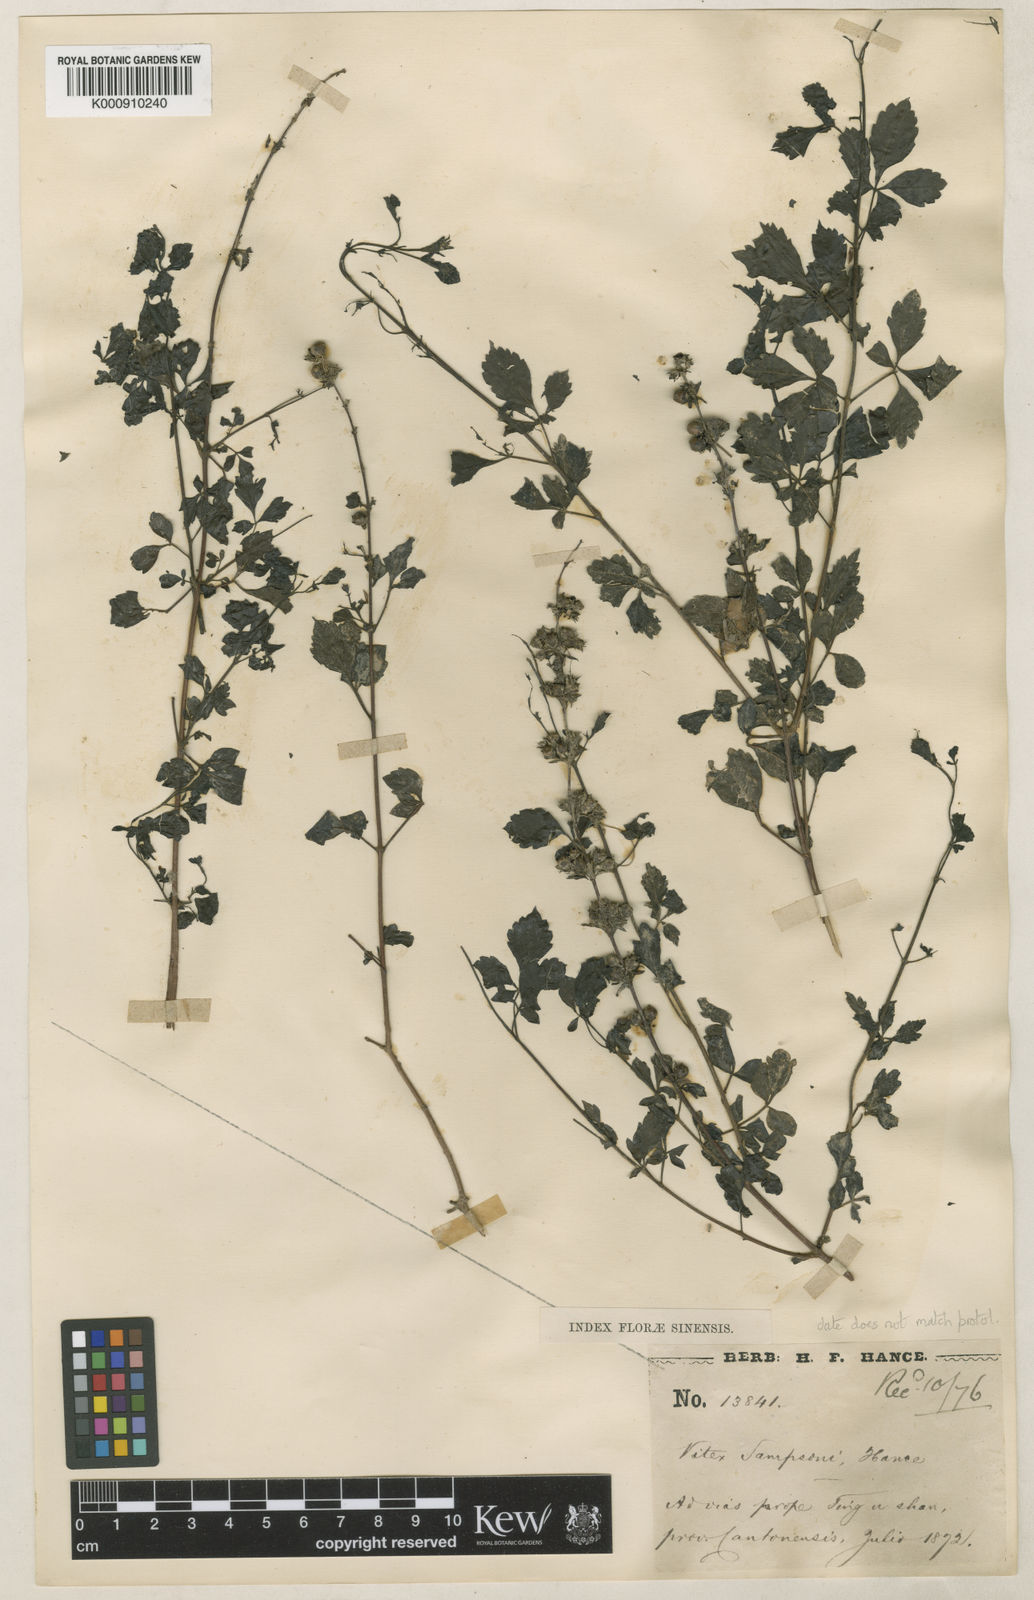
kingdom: Plantae
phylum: Tracheophyta
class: Magnoliopsida
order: Lamiales
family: Lamiaceae
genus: Vitex
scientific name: Vitex sampsonii
